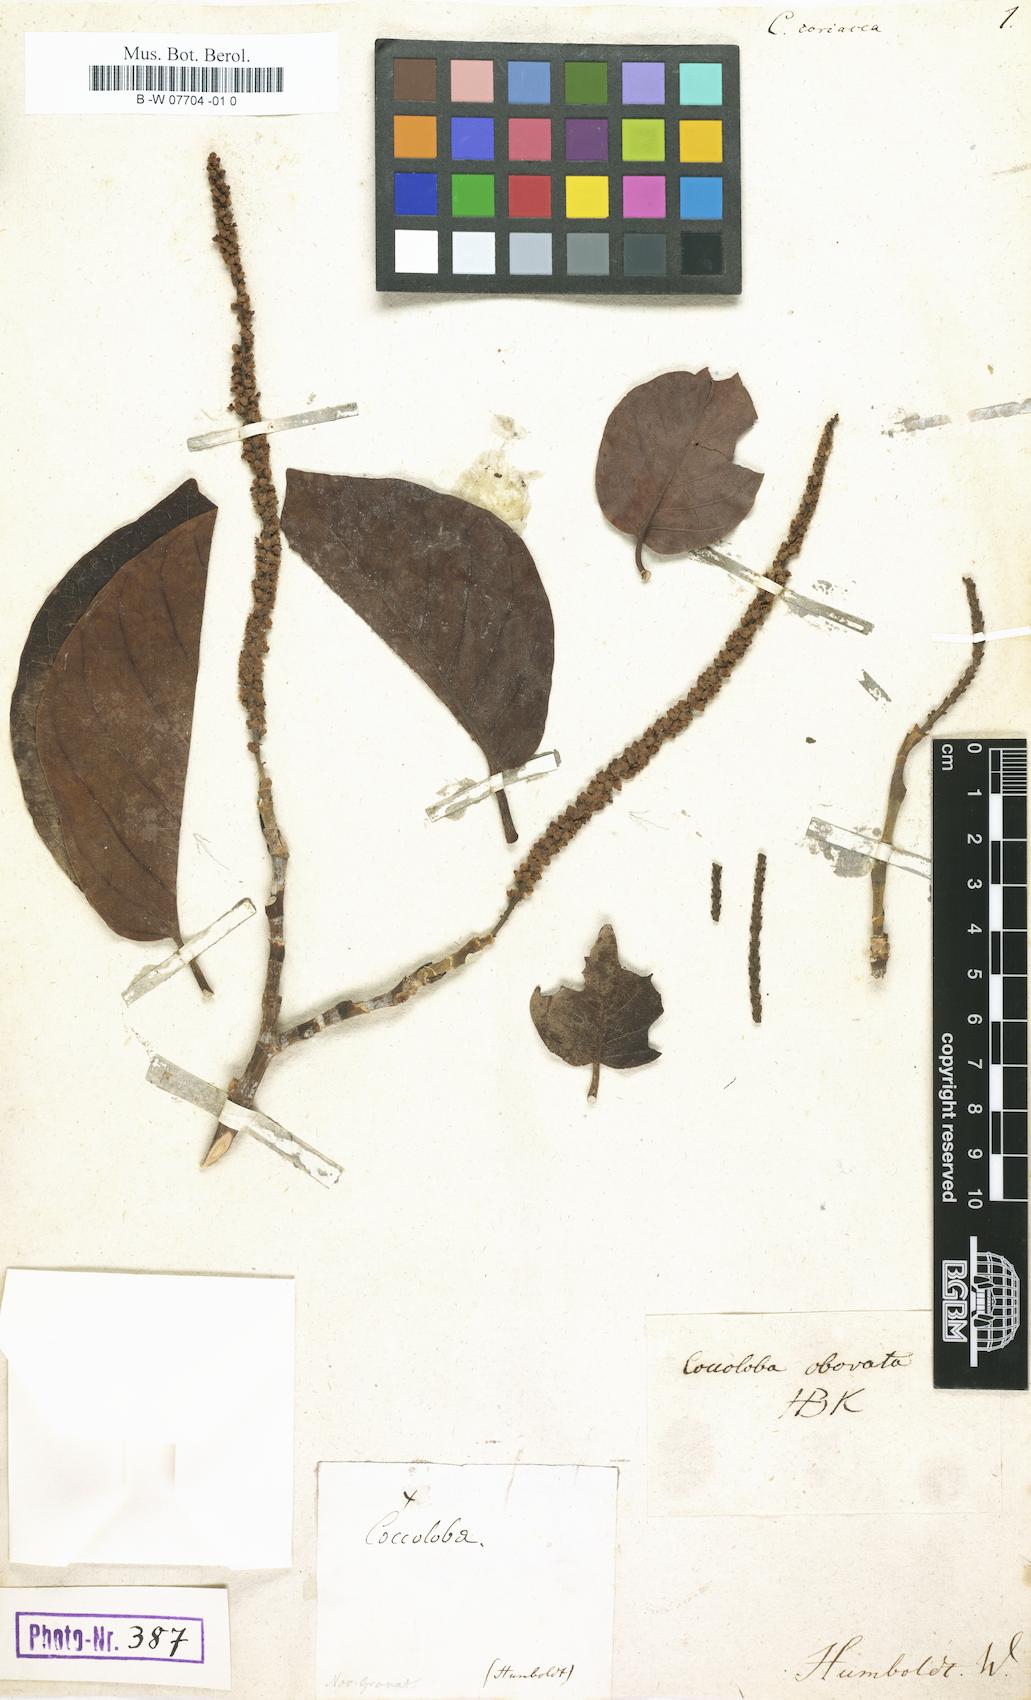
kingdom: Plantae
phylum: Tracheophyta
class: Magnoliopsida
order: Caryophyllales
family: Polygonaceae
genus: Coccoloba
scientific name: Coccoloba coriacea
